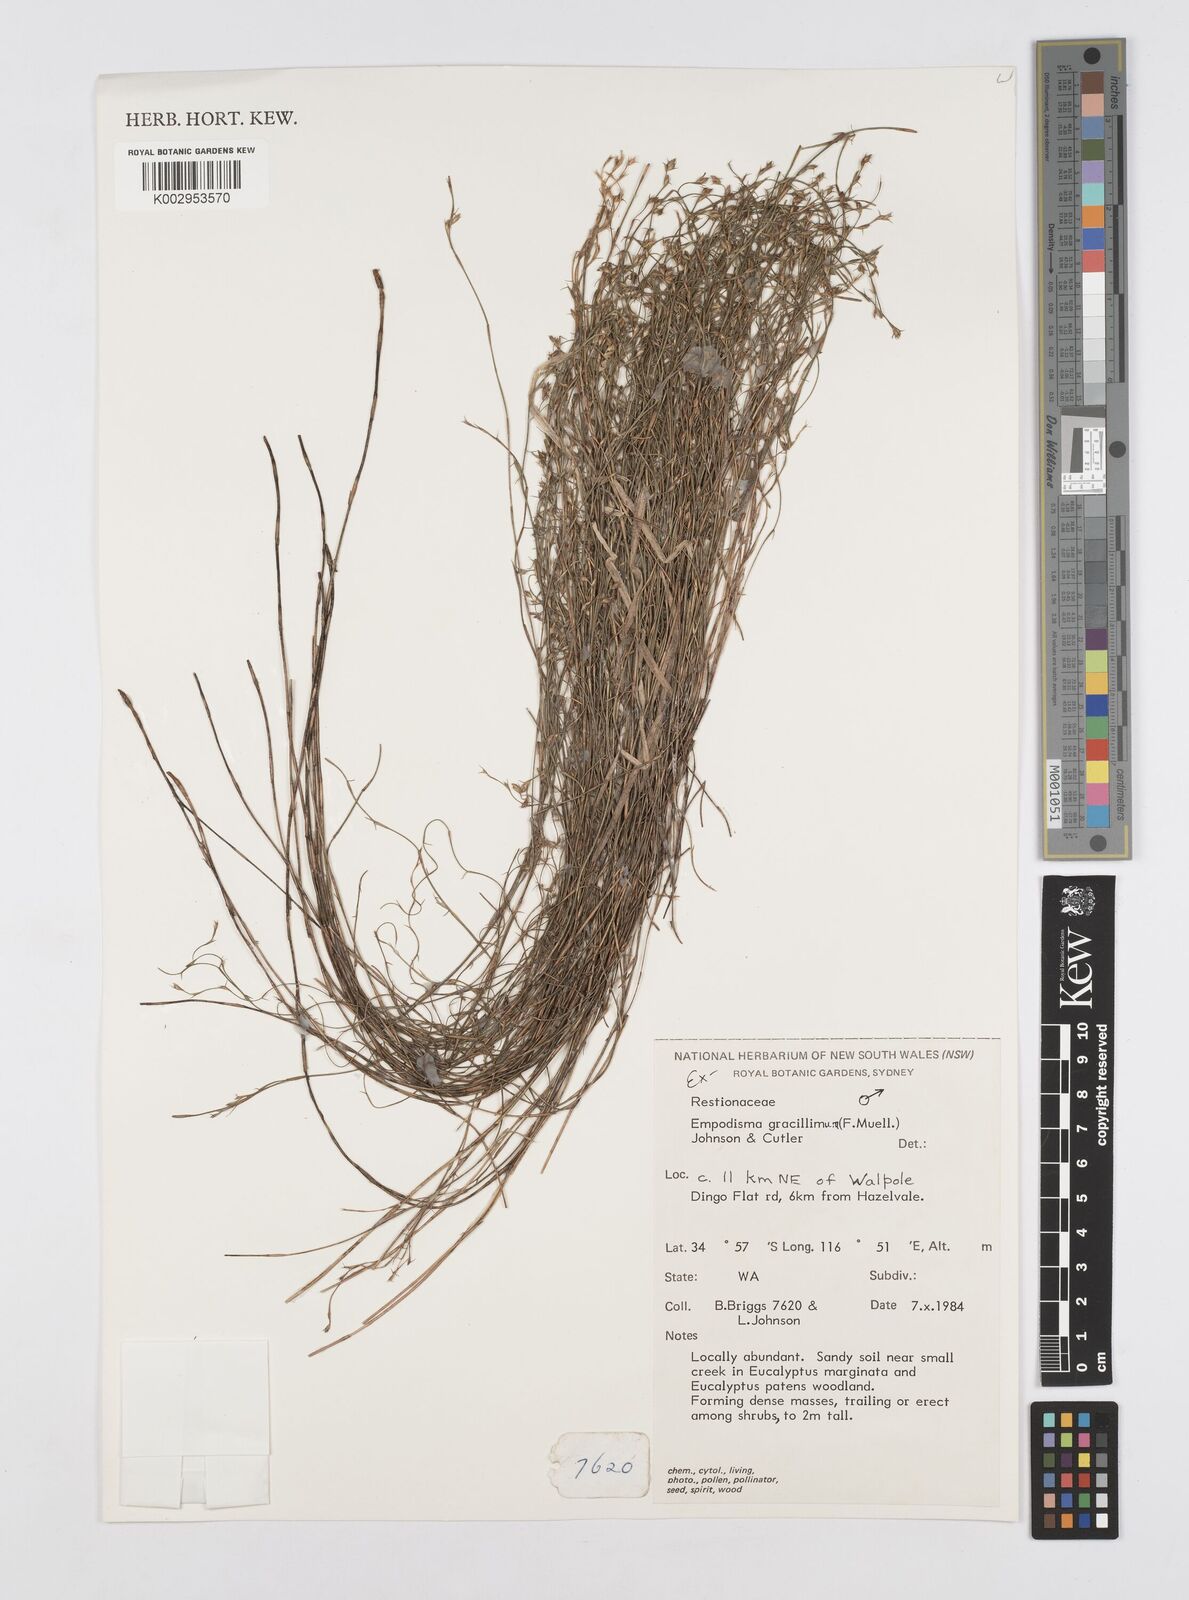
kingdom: Plantae
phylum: Tracheophyta
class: Liliopsida
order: Poales
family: Restionaceae
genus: Empodisma
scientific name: Empodisma gracillimum
